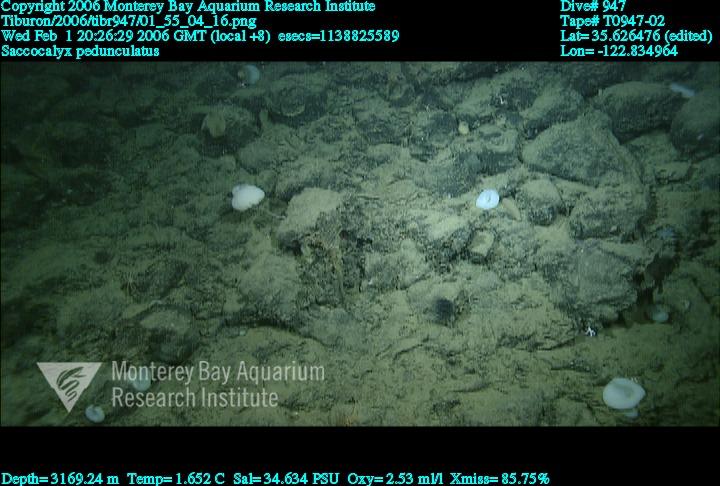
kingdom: Animalia
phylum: Porifera
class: Hexactinellida
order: Lyssacinosida
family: Euplectellidae
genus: Saccocalyx
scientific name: Saccocalyx pedunculatus
